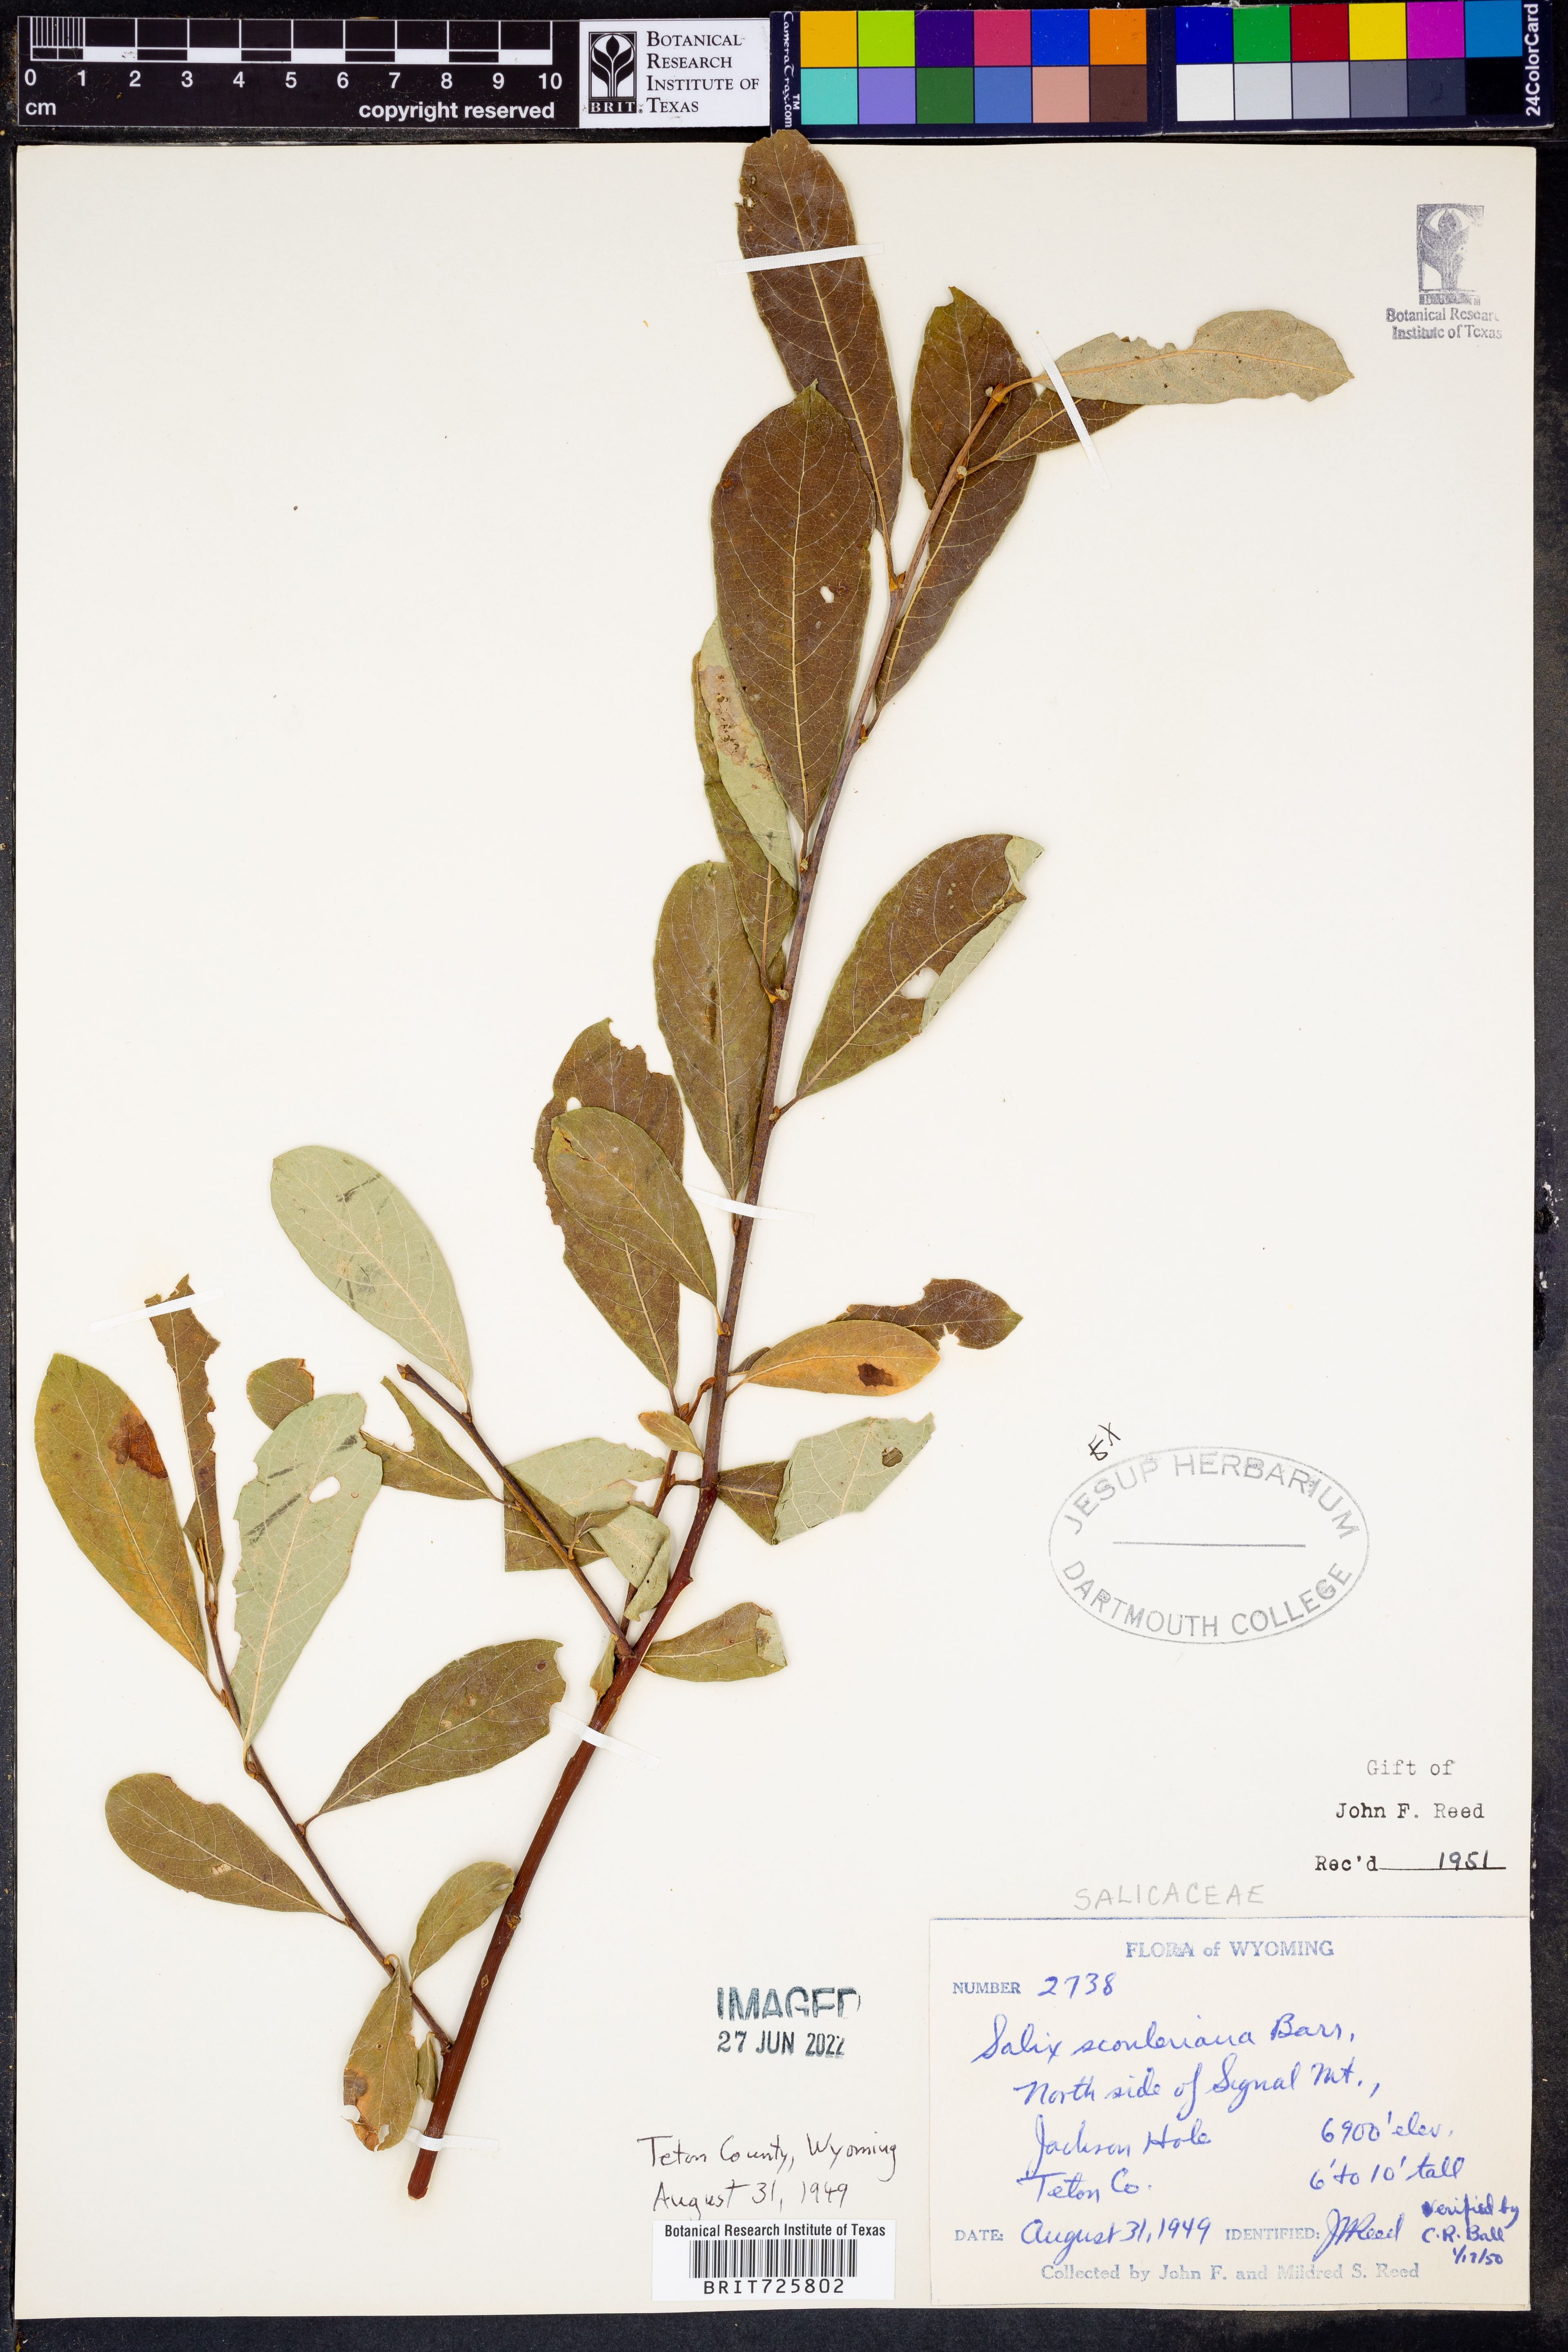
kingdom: Plantae
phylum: Tracheophyta
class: Magnoliopsida
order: Malpighiales
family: Salicaceae
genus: Salix
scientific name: Salix scouleriana
